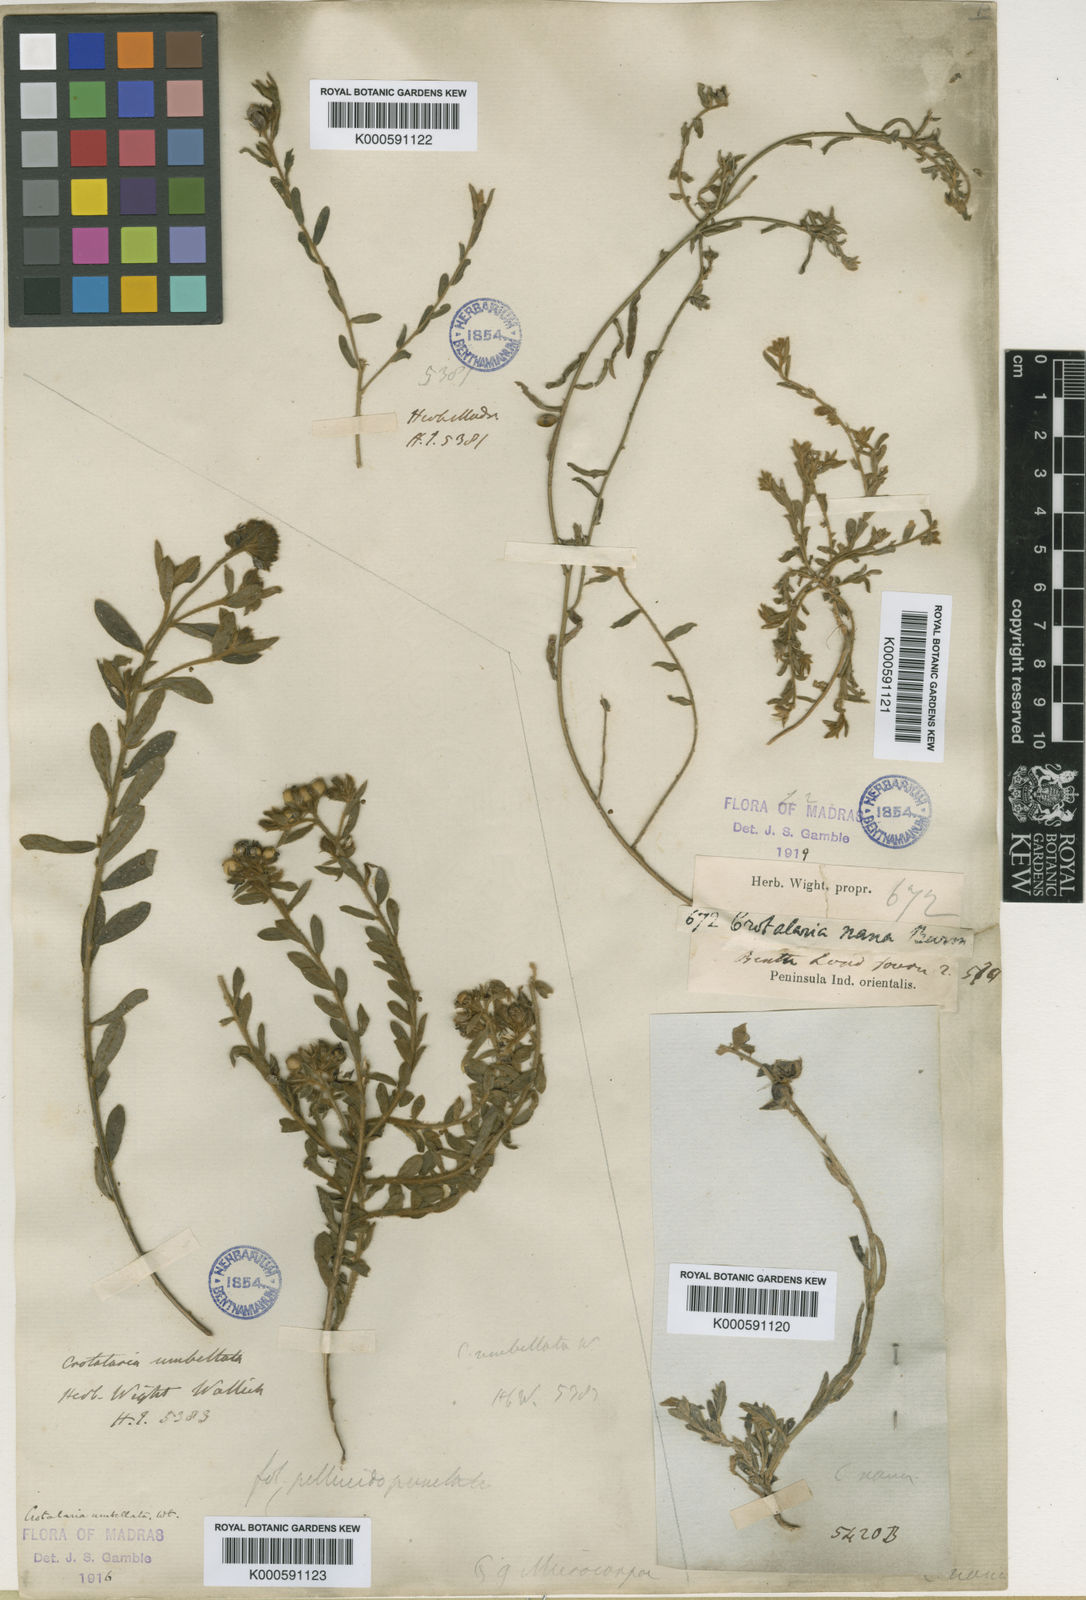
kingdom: Plantae
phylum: Tracheophyta
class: Magnoliopsida
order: Fabales
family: Fabaceae
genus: Crotalaria
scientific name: Crotalaria
